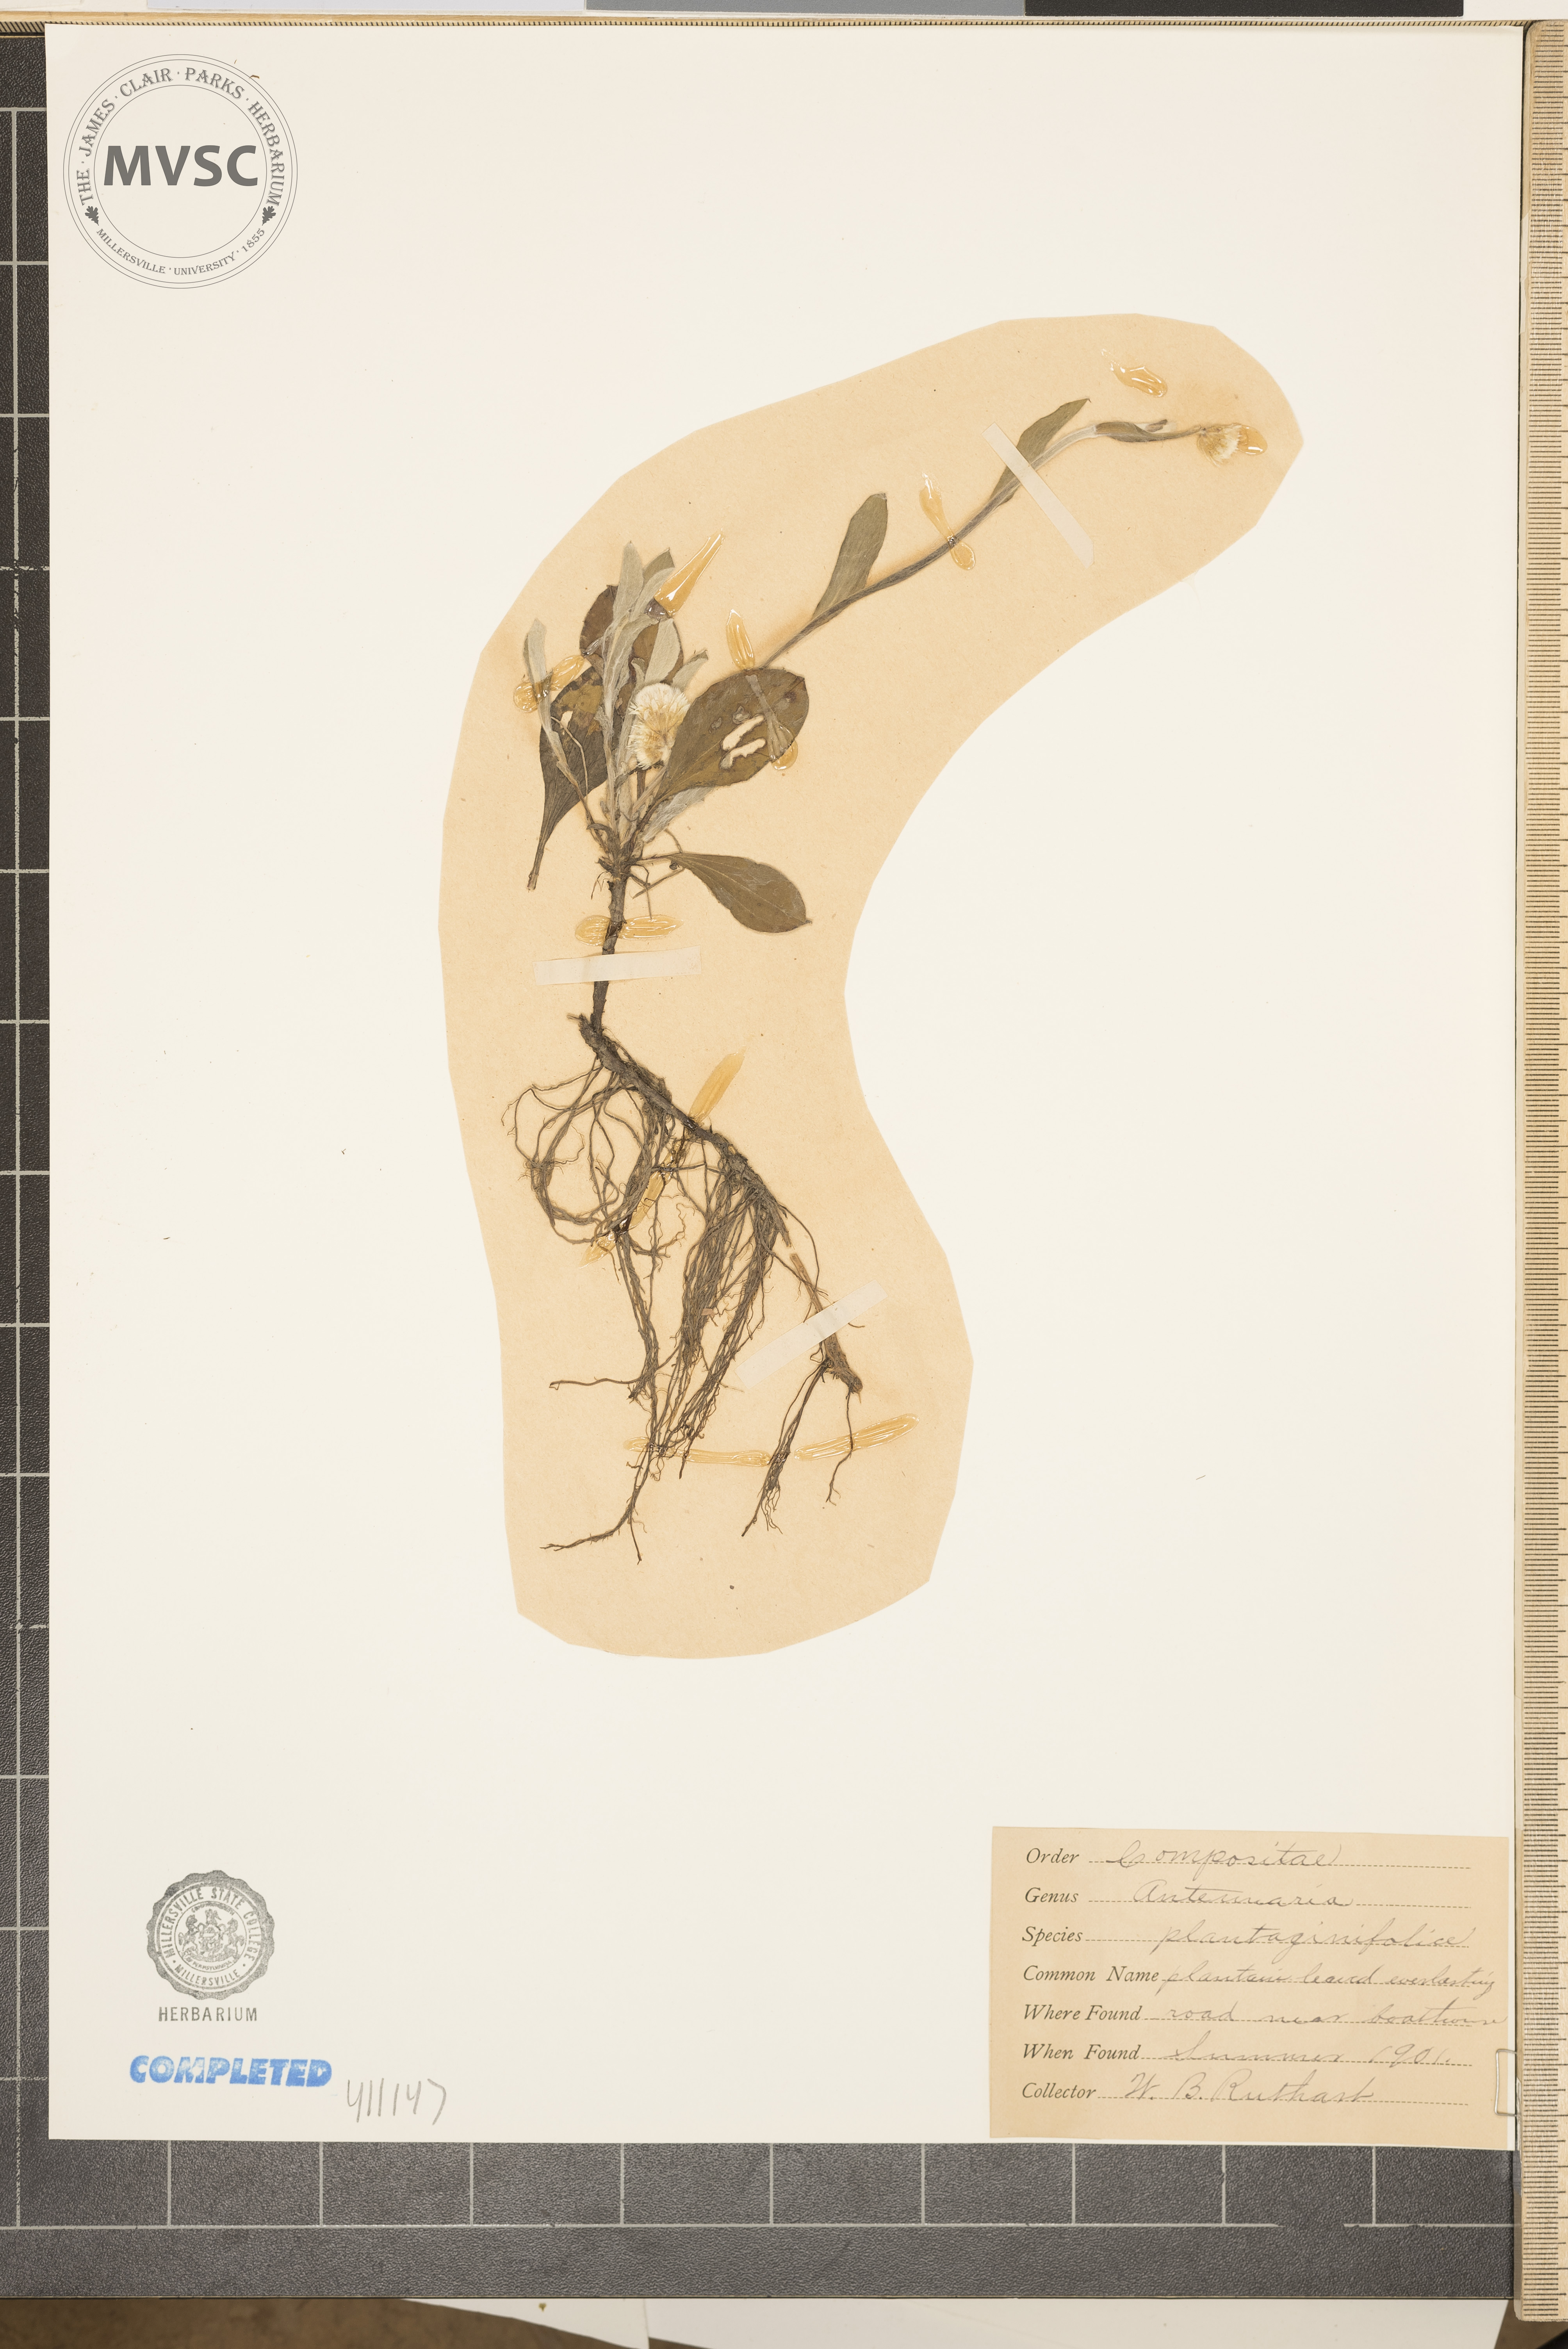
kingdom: Plantae
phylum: Tracheophyta
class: Magnoliopsida
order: Asterales
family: Asteraceae
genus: Antennaria
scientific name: Antennaria plantaginifolia
